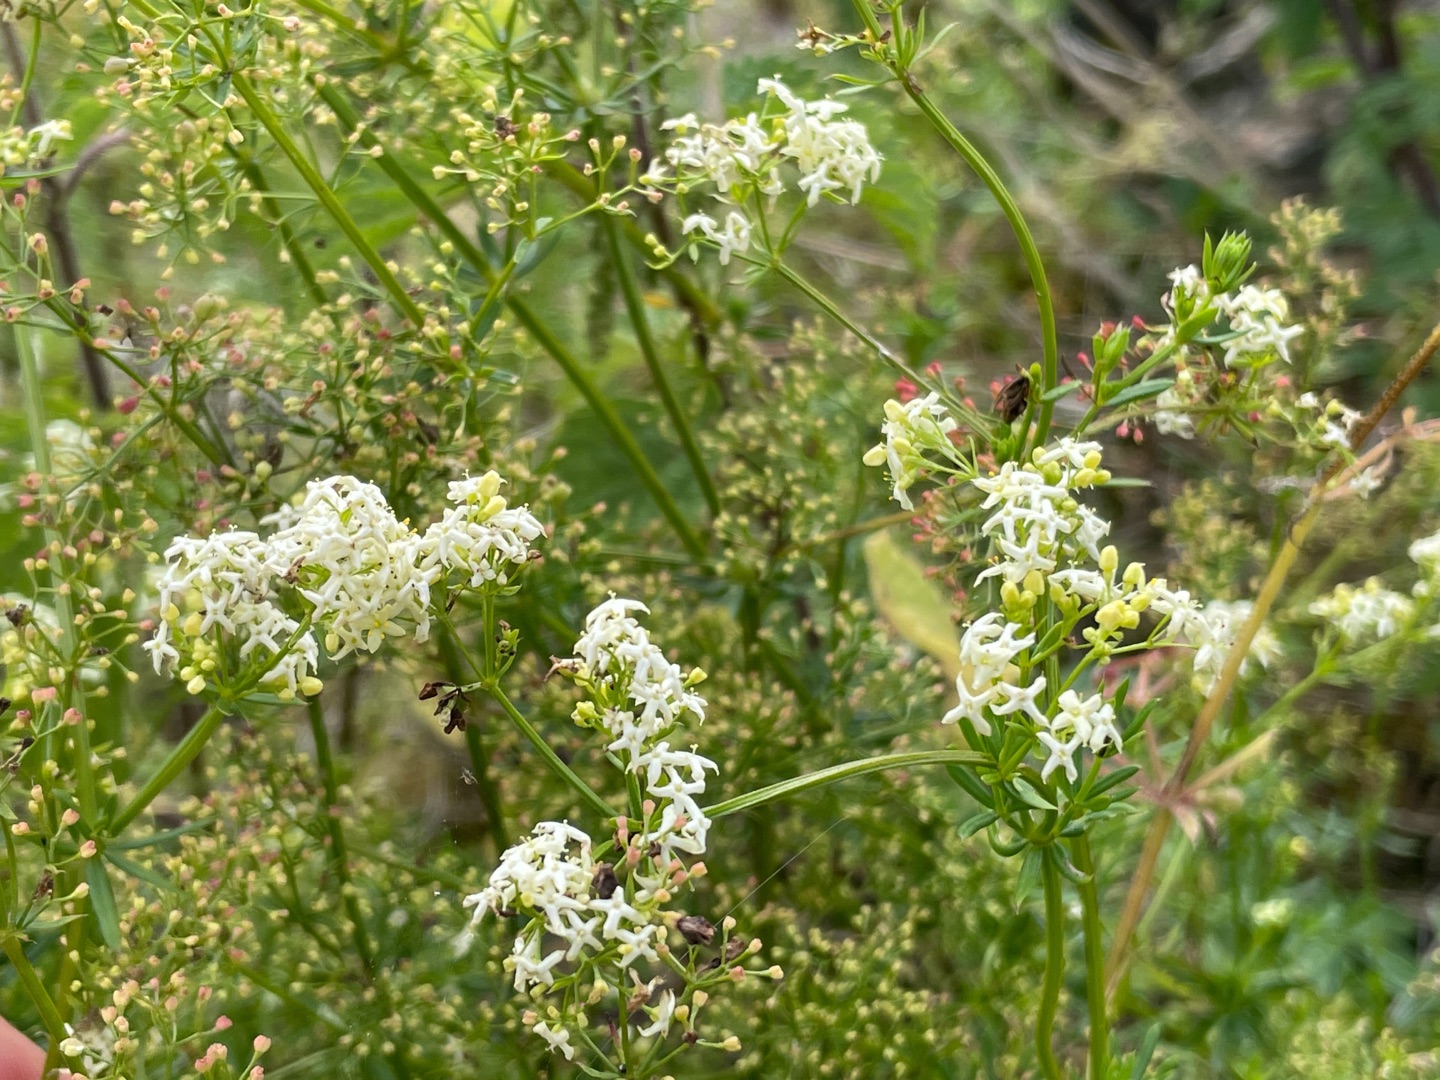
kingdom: Plantae
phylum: Tracheophyta
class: Magnoliopsida
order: Gentianales
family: Rubiaceae
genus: Galium
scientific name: Galium mollugo
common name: Hvid snerre
